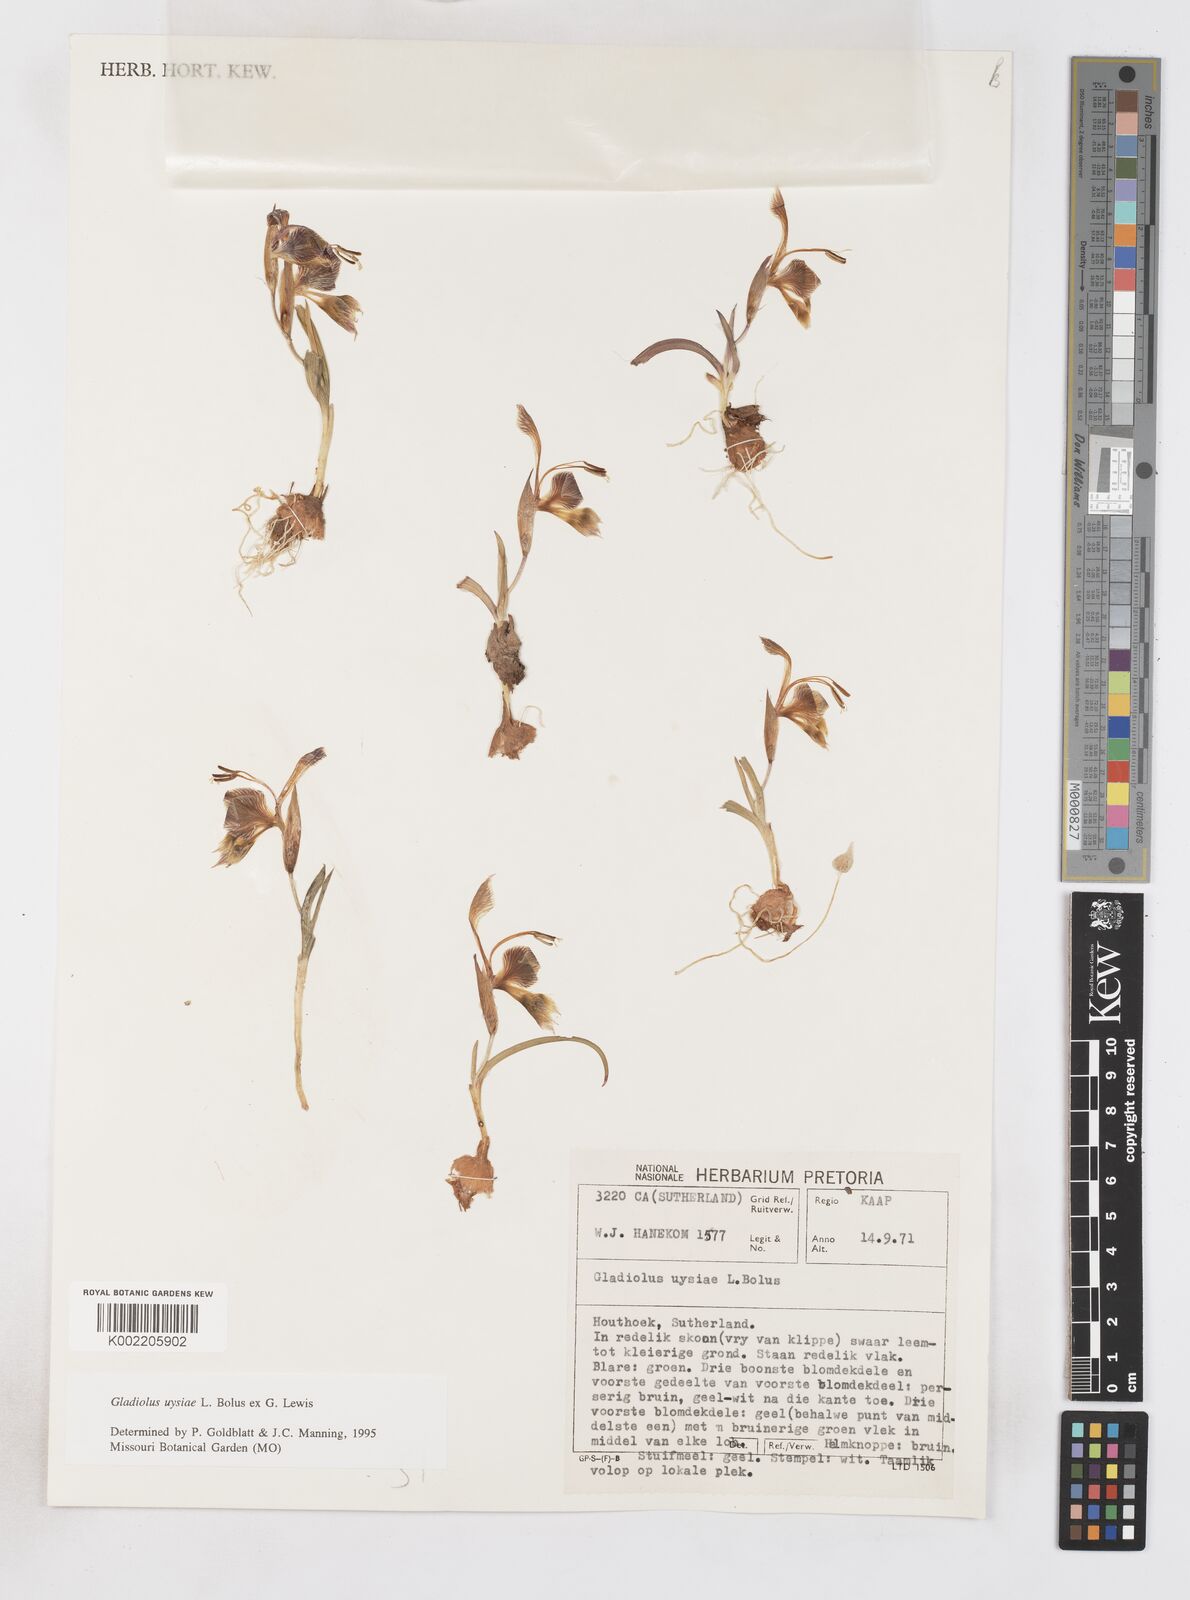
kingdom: Plantae
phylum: Tracheophyta
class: Liliopsida
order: Asparagales
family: Iridaceae
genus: Gladiolus
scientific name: Gladiolus uysiae
